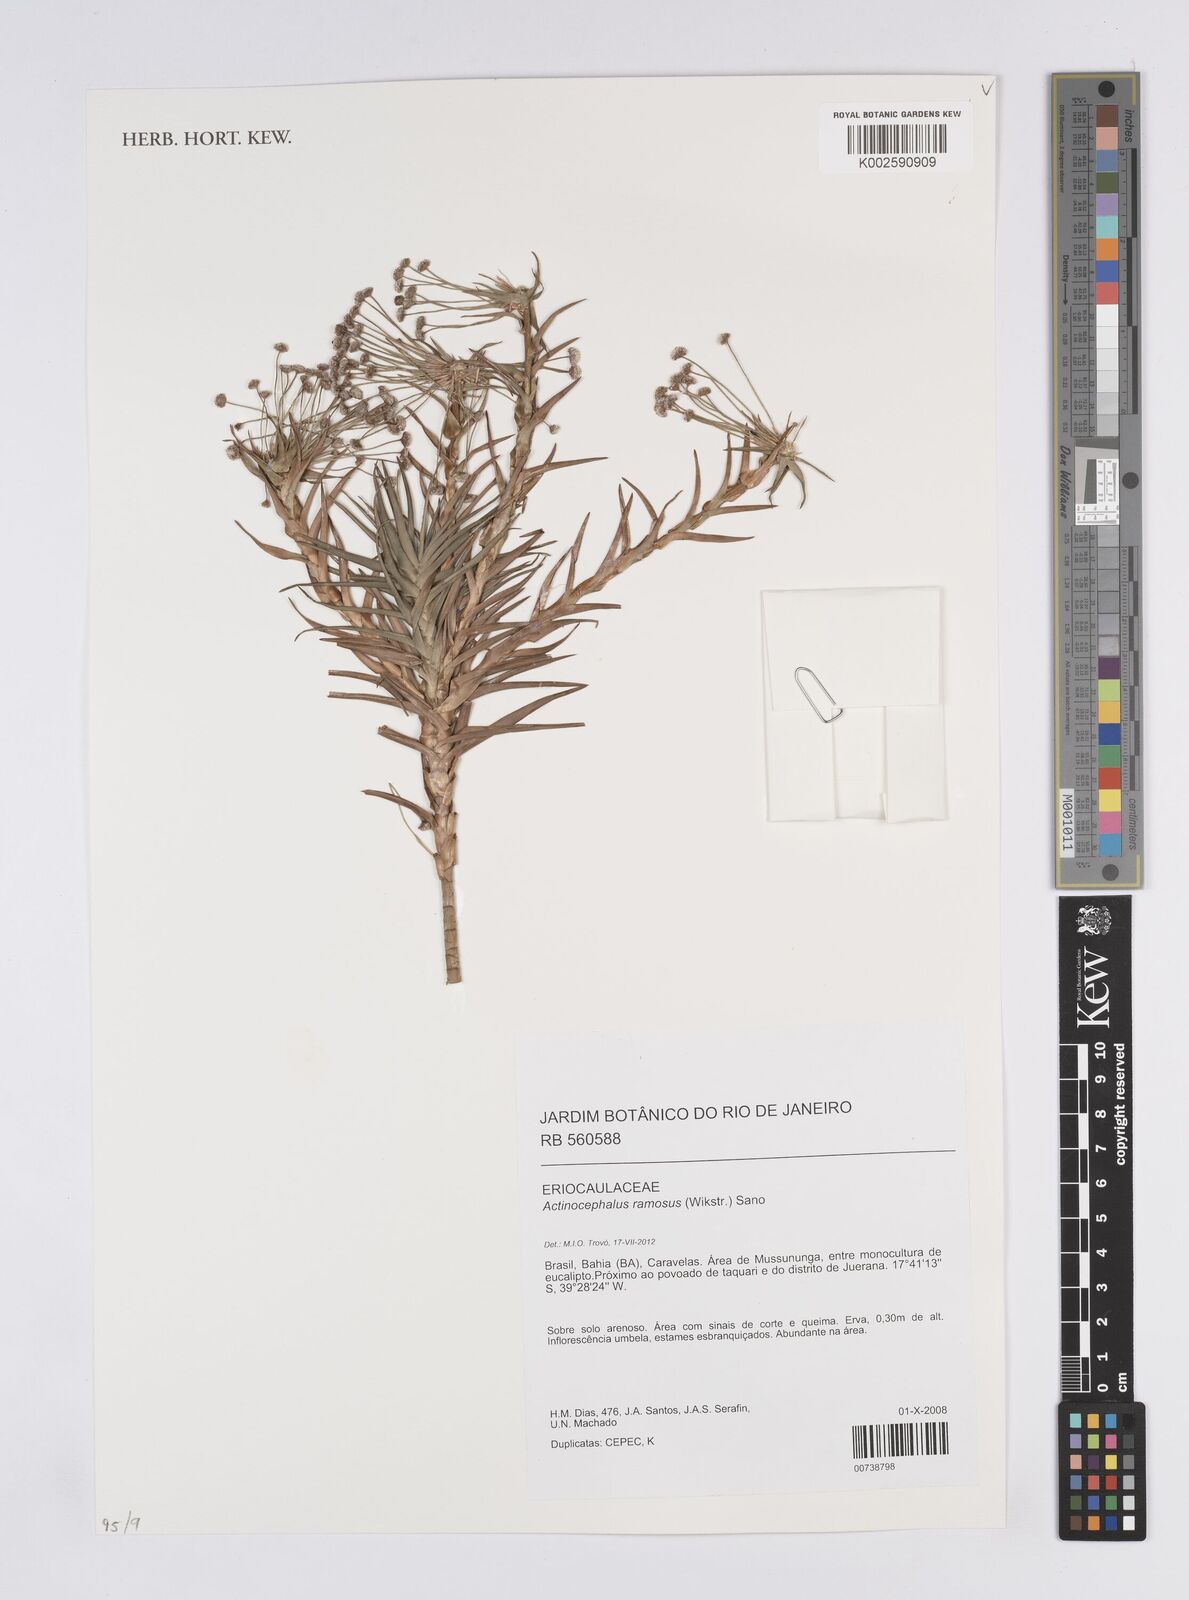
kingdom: Plantae
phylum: Tracheophyta
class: Liliopsida
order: Poales
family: Eriocaulaceae
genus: Paepalanthus
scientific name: Paepalanthus ramosus
